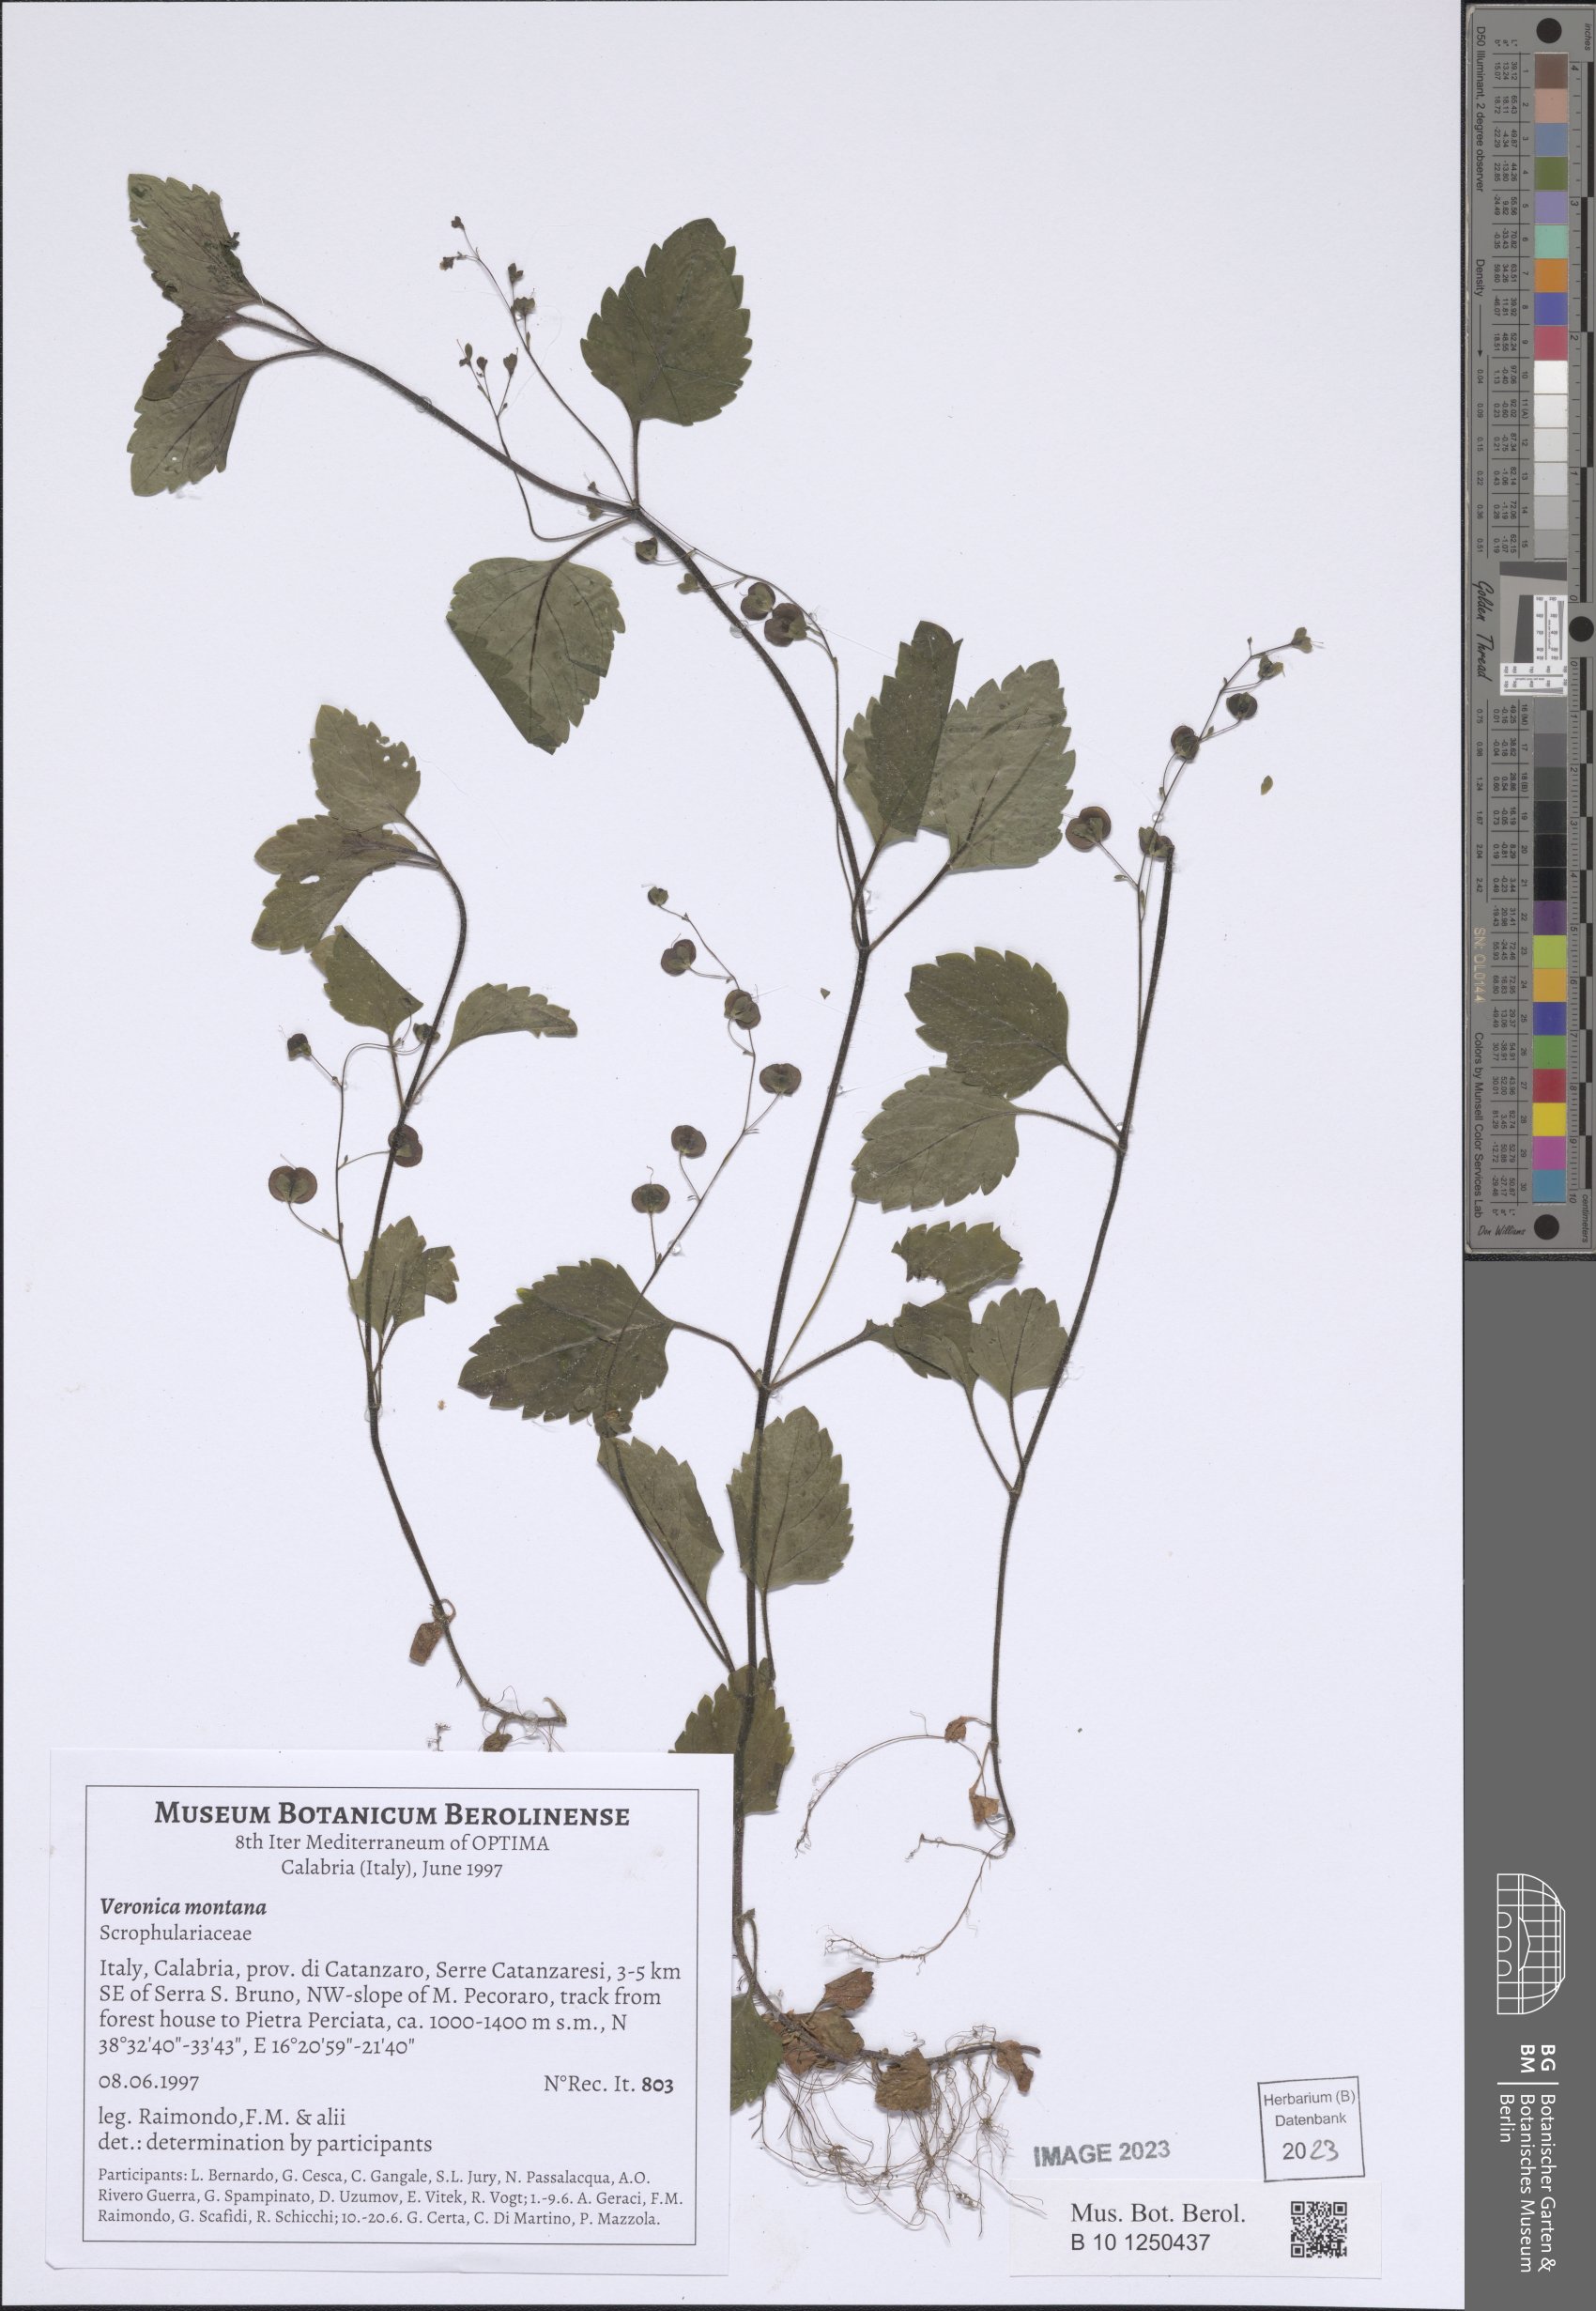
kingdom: Plantae
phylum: Tracheophyta
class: Magnoliopsida
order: Lamiales
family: Plantaginaceae
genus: Veronica
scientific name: Veronica montana
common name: Wood speedwell
